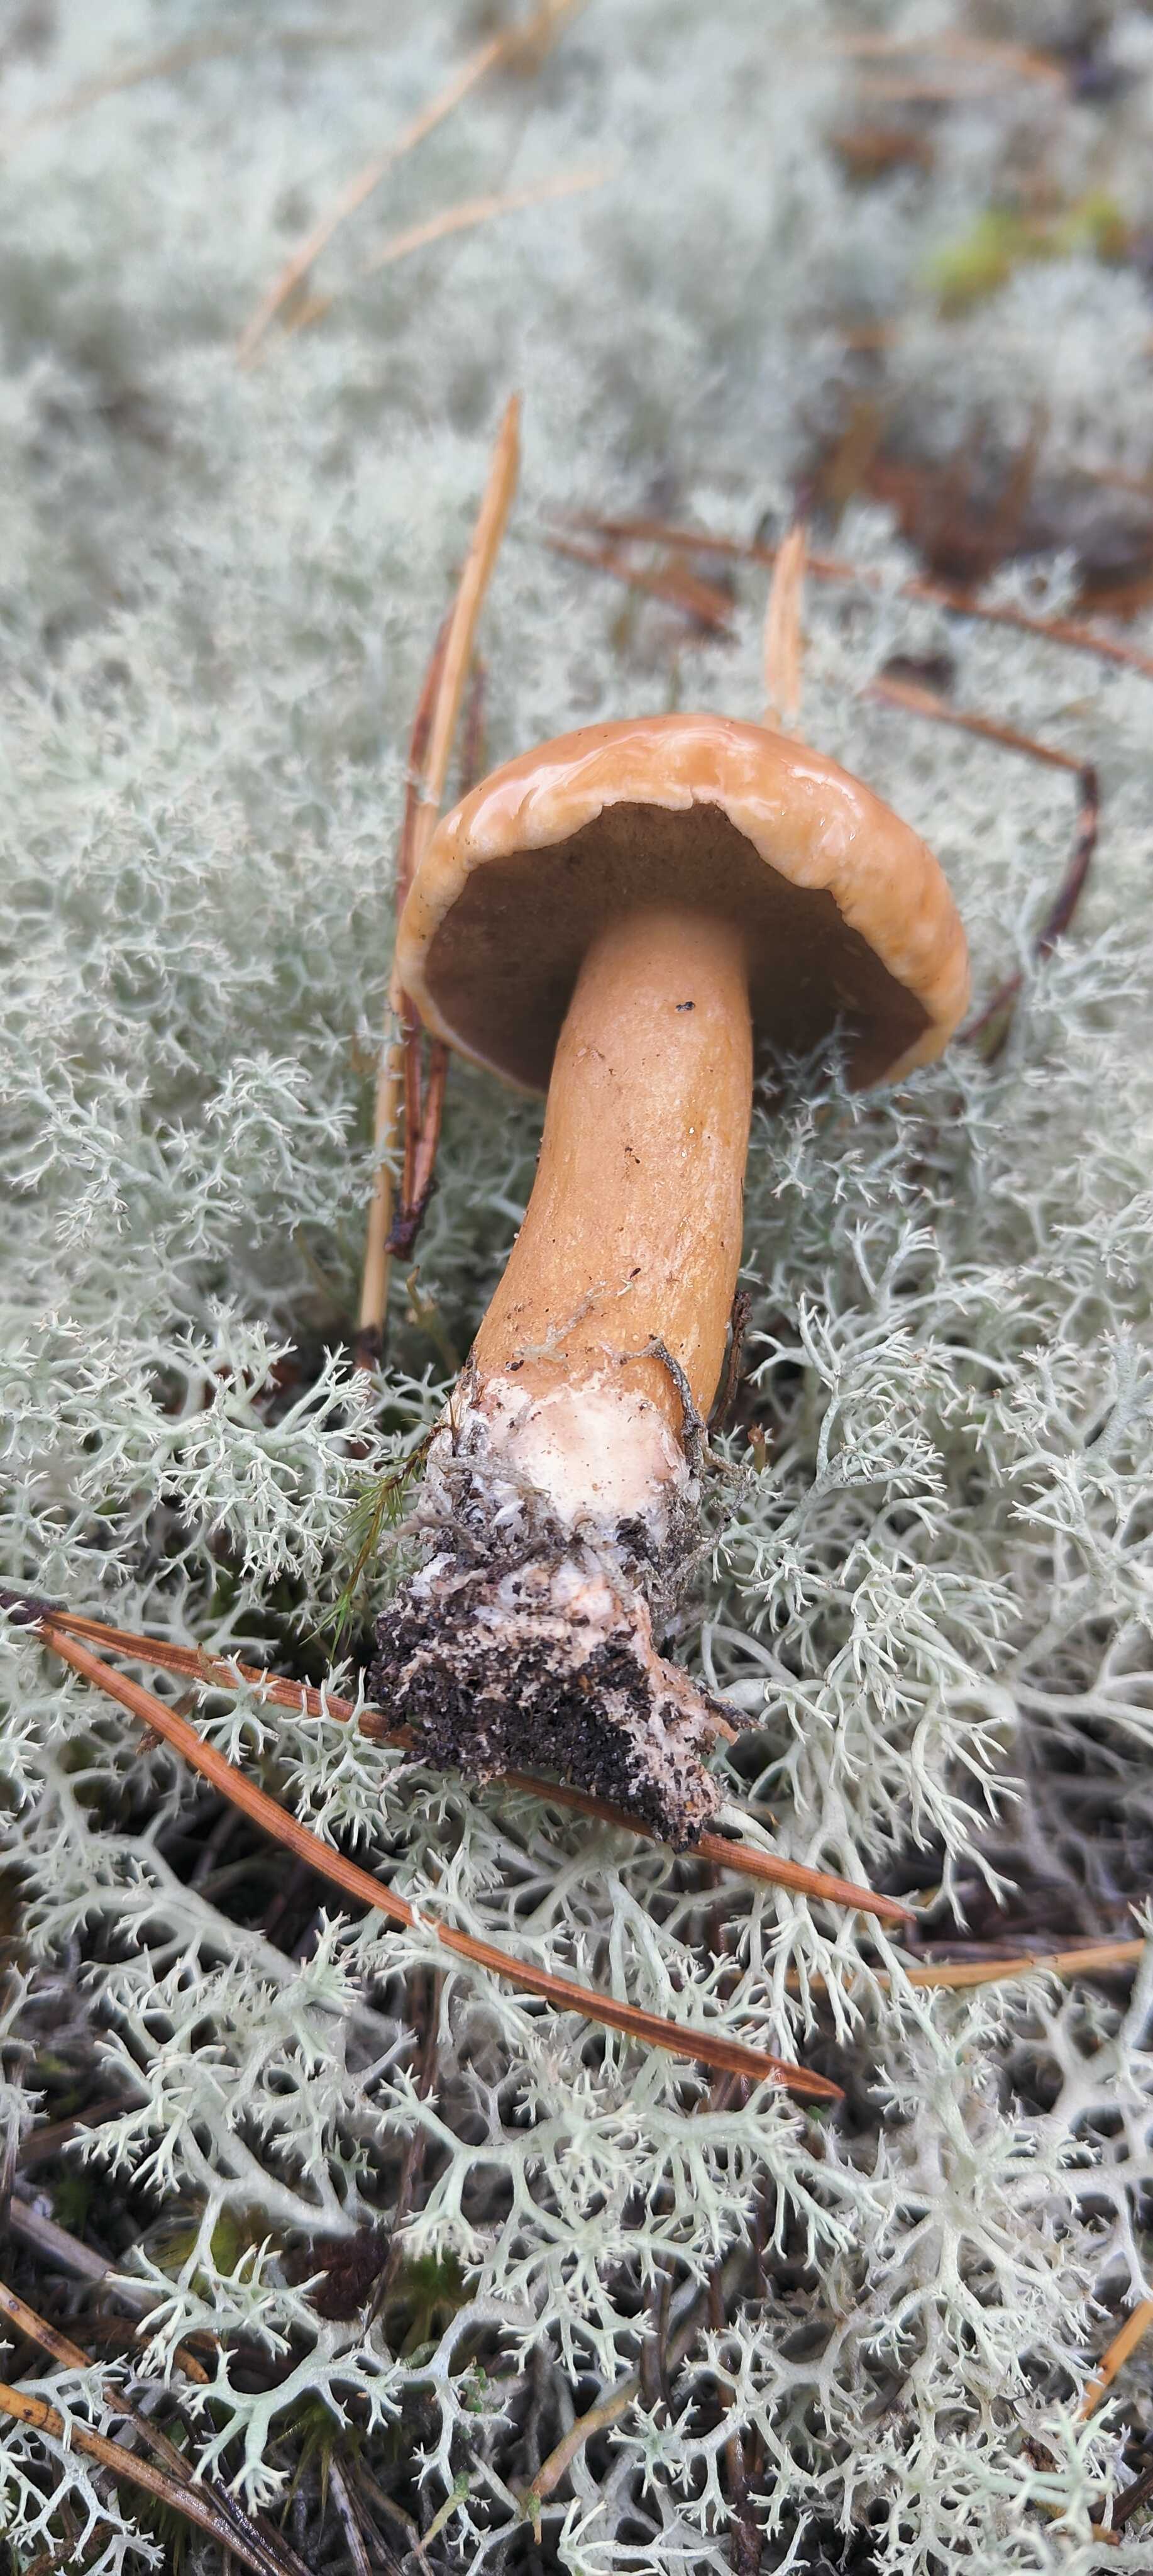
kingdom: Fungi
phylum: Basidiomycota
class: Agaricomycetes
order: Boletales
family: Suillaceae
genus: Suillus
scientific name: Suillus bovinus
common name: grovporet slimrørhat
